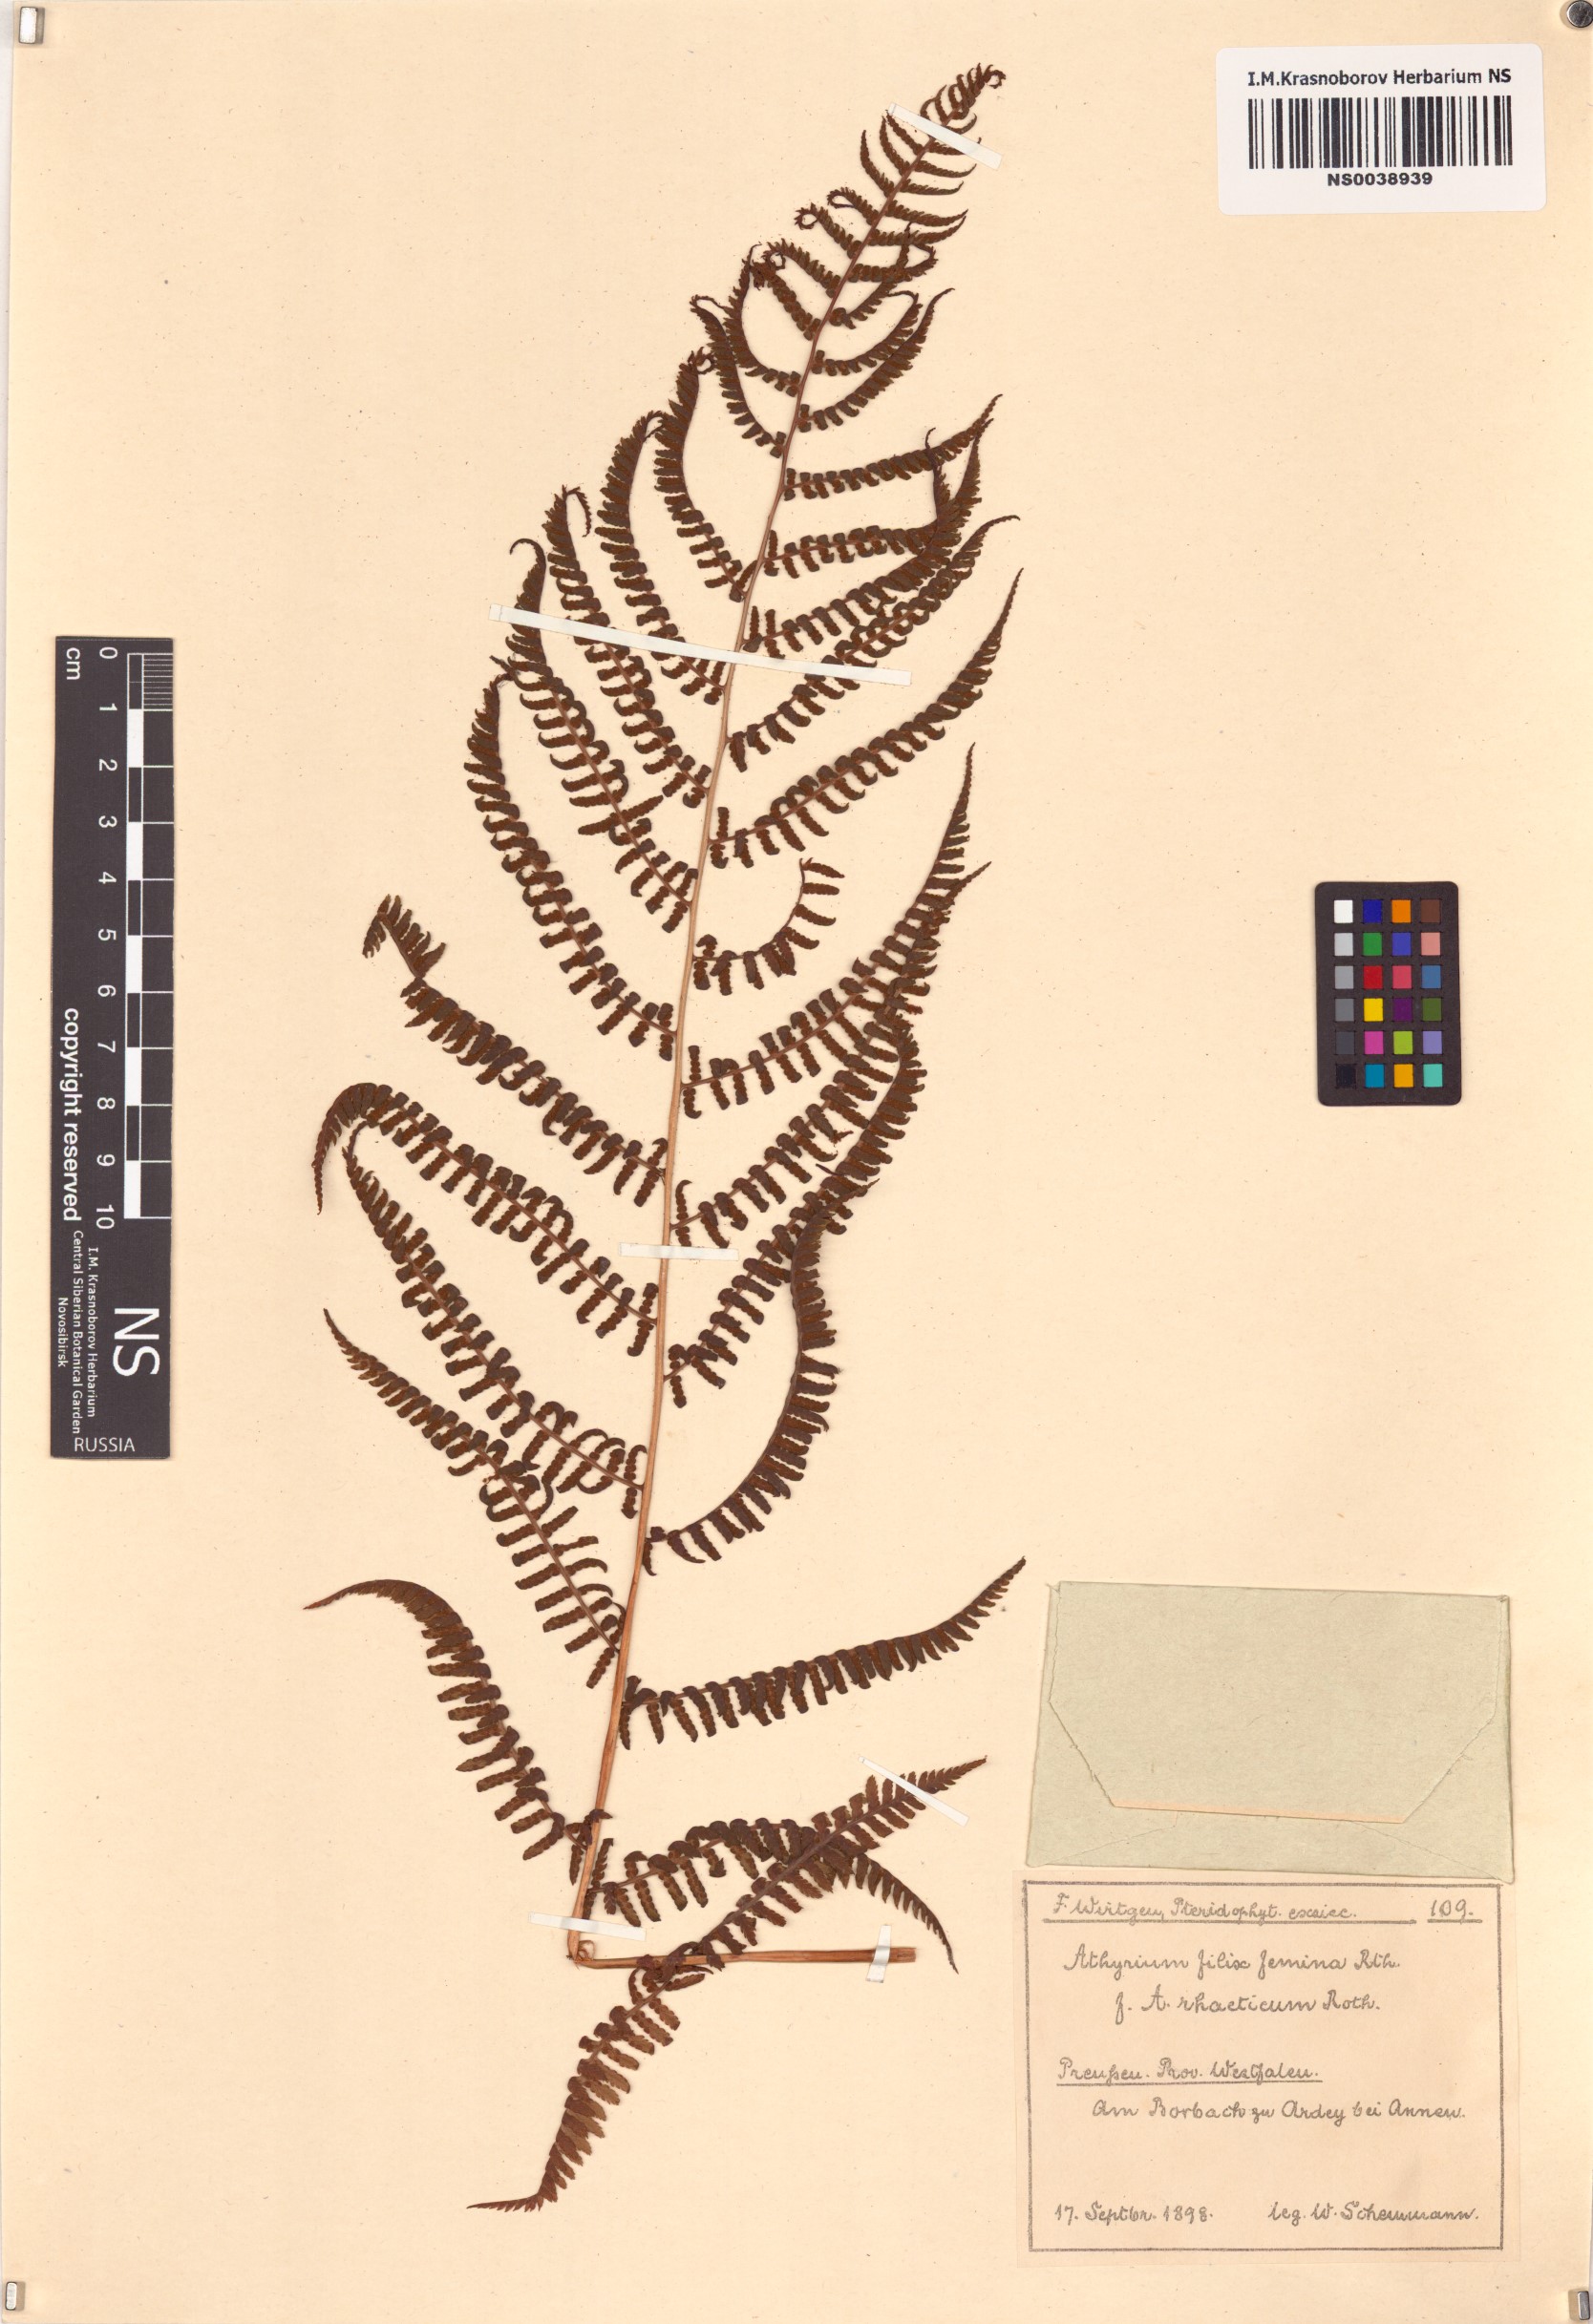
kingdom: Plantae
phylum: Tracheophyta
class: Polypodiopsida
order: Polypodiales
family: Athyriaceae
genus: Athyrium
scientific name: Athyrium filix-femina
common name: Lady fern
